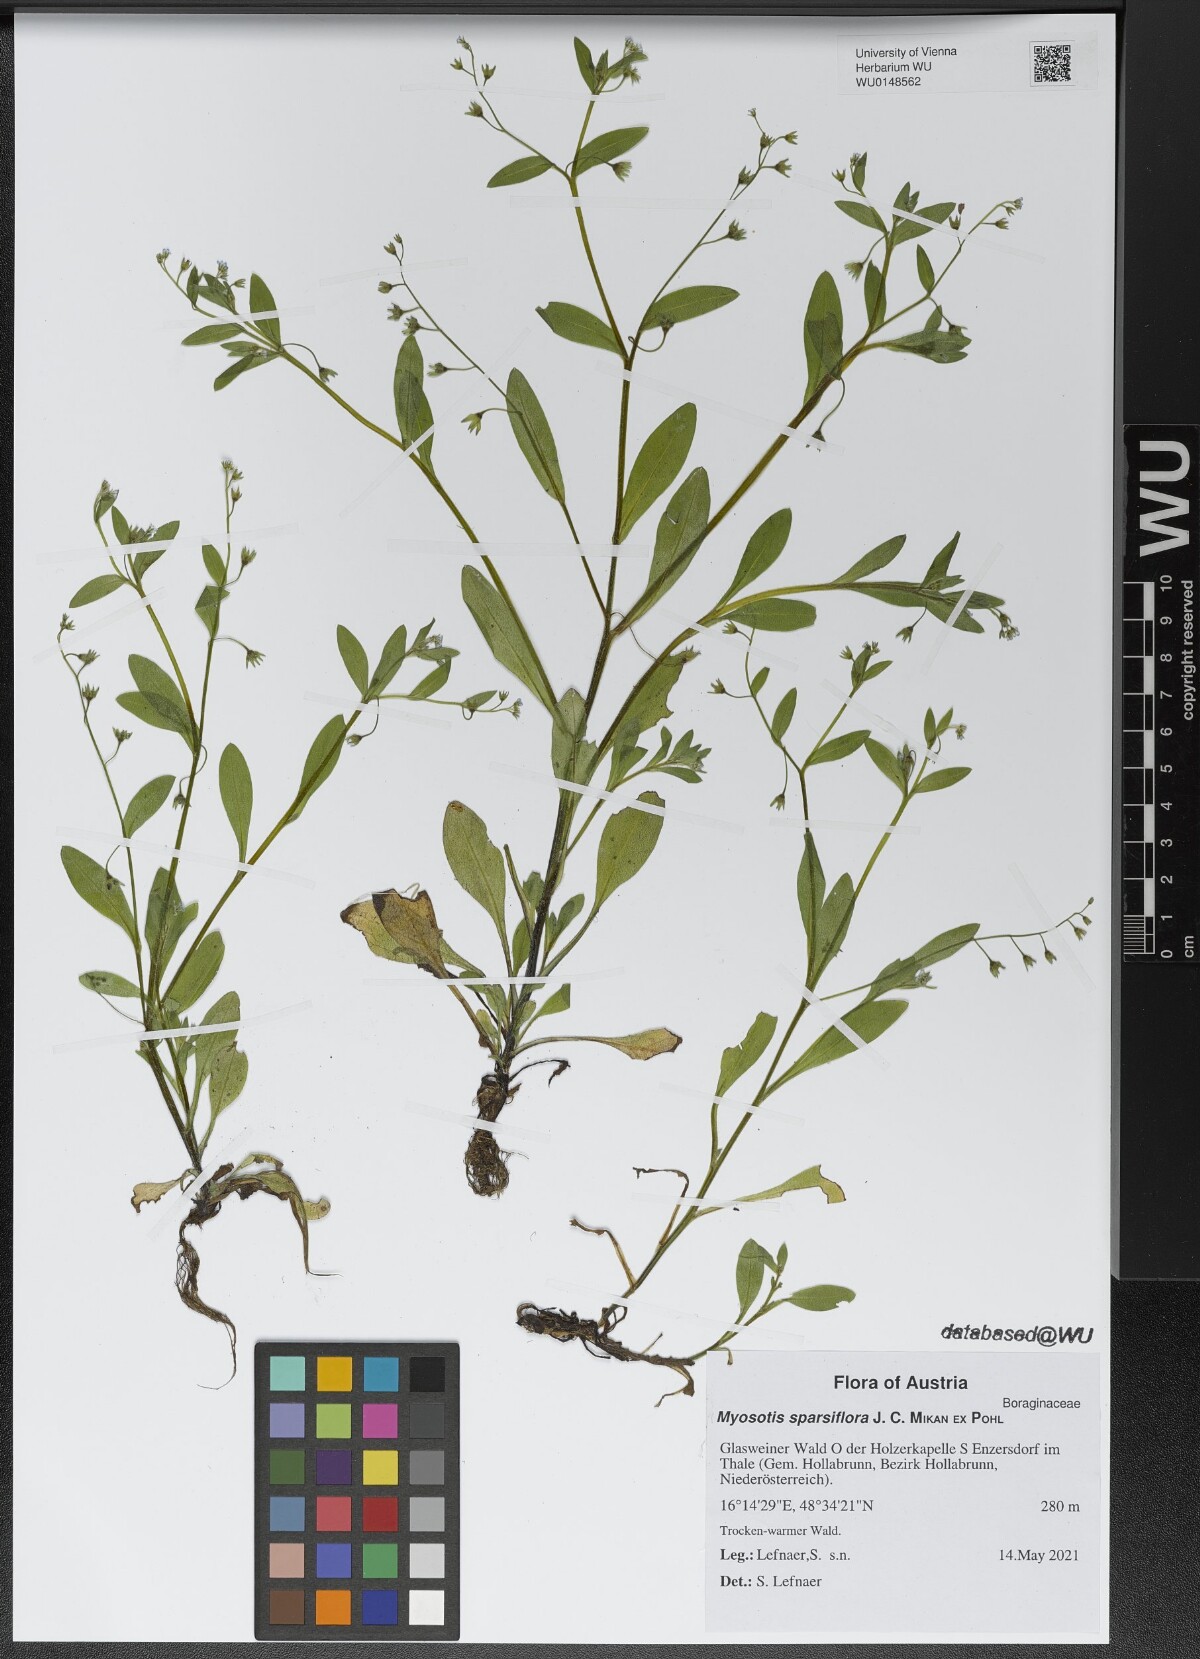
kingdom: Plantae
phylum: Tracheophyta
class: Magnoliopsida
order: Boraginales
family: Boraginaceae
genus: Myosotis
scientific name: Myosotis sparsiflora
